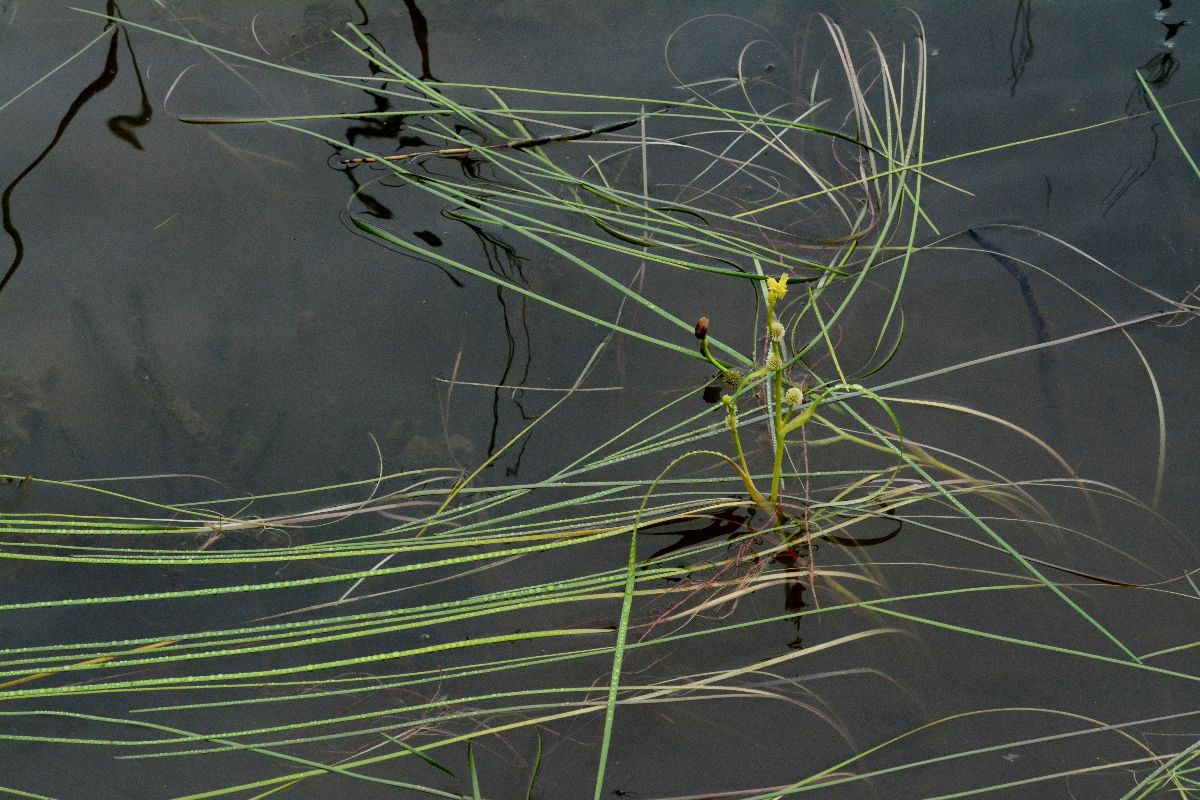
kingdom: Plantae
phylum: Tracheophyta
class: Liliopsida
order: Poales
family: Typhaceae
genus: Sparganium
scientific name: Sparganium gramineum
